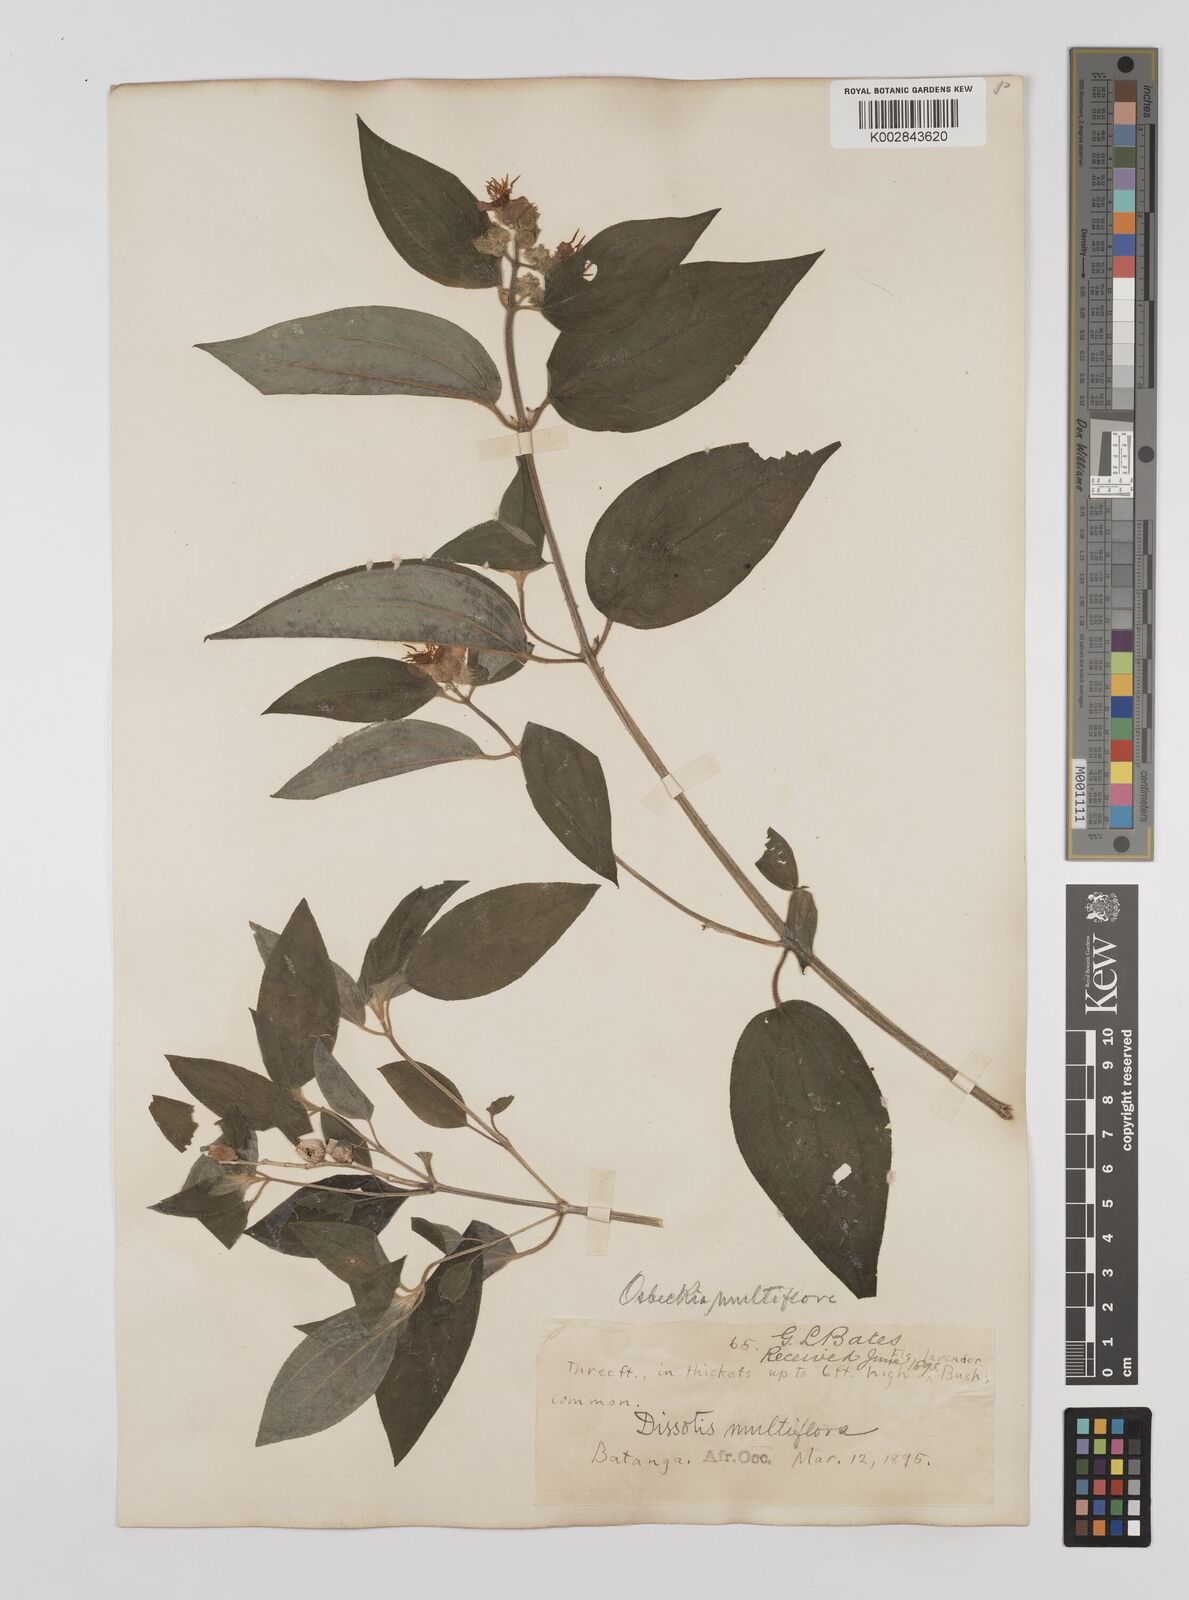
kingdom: Plantae
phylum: Tracheophyta
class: Magnoliopsida
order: Myrtales
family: Melastomataceae
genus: Dupineta
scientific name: Dupineta multiflora
